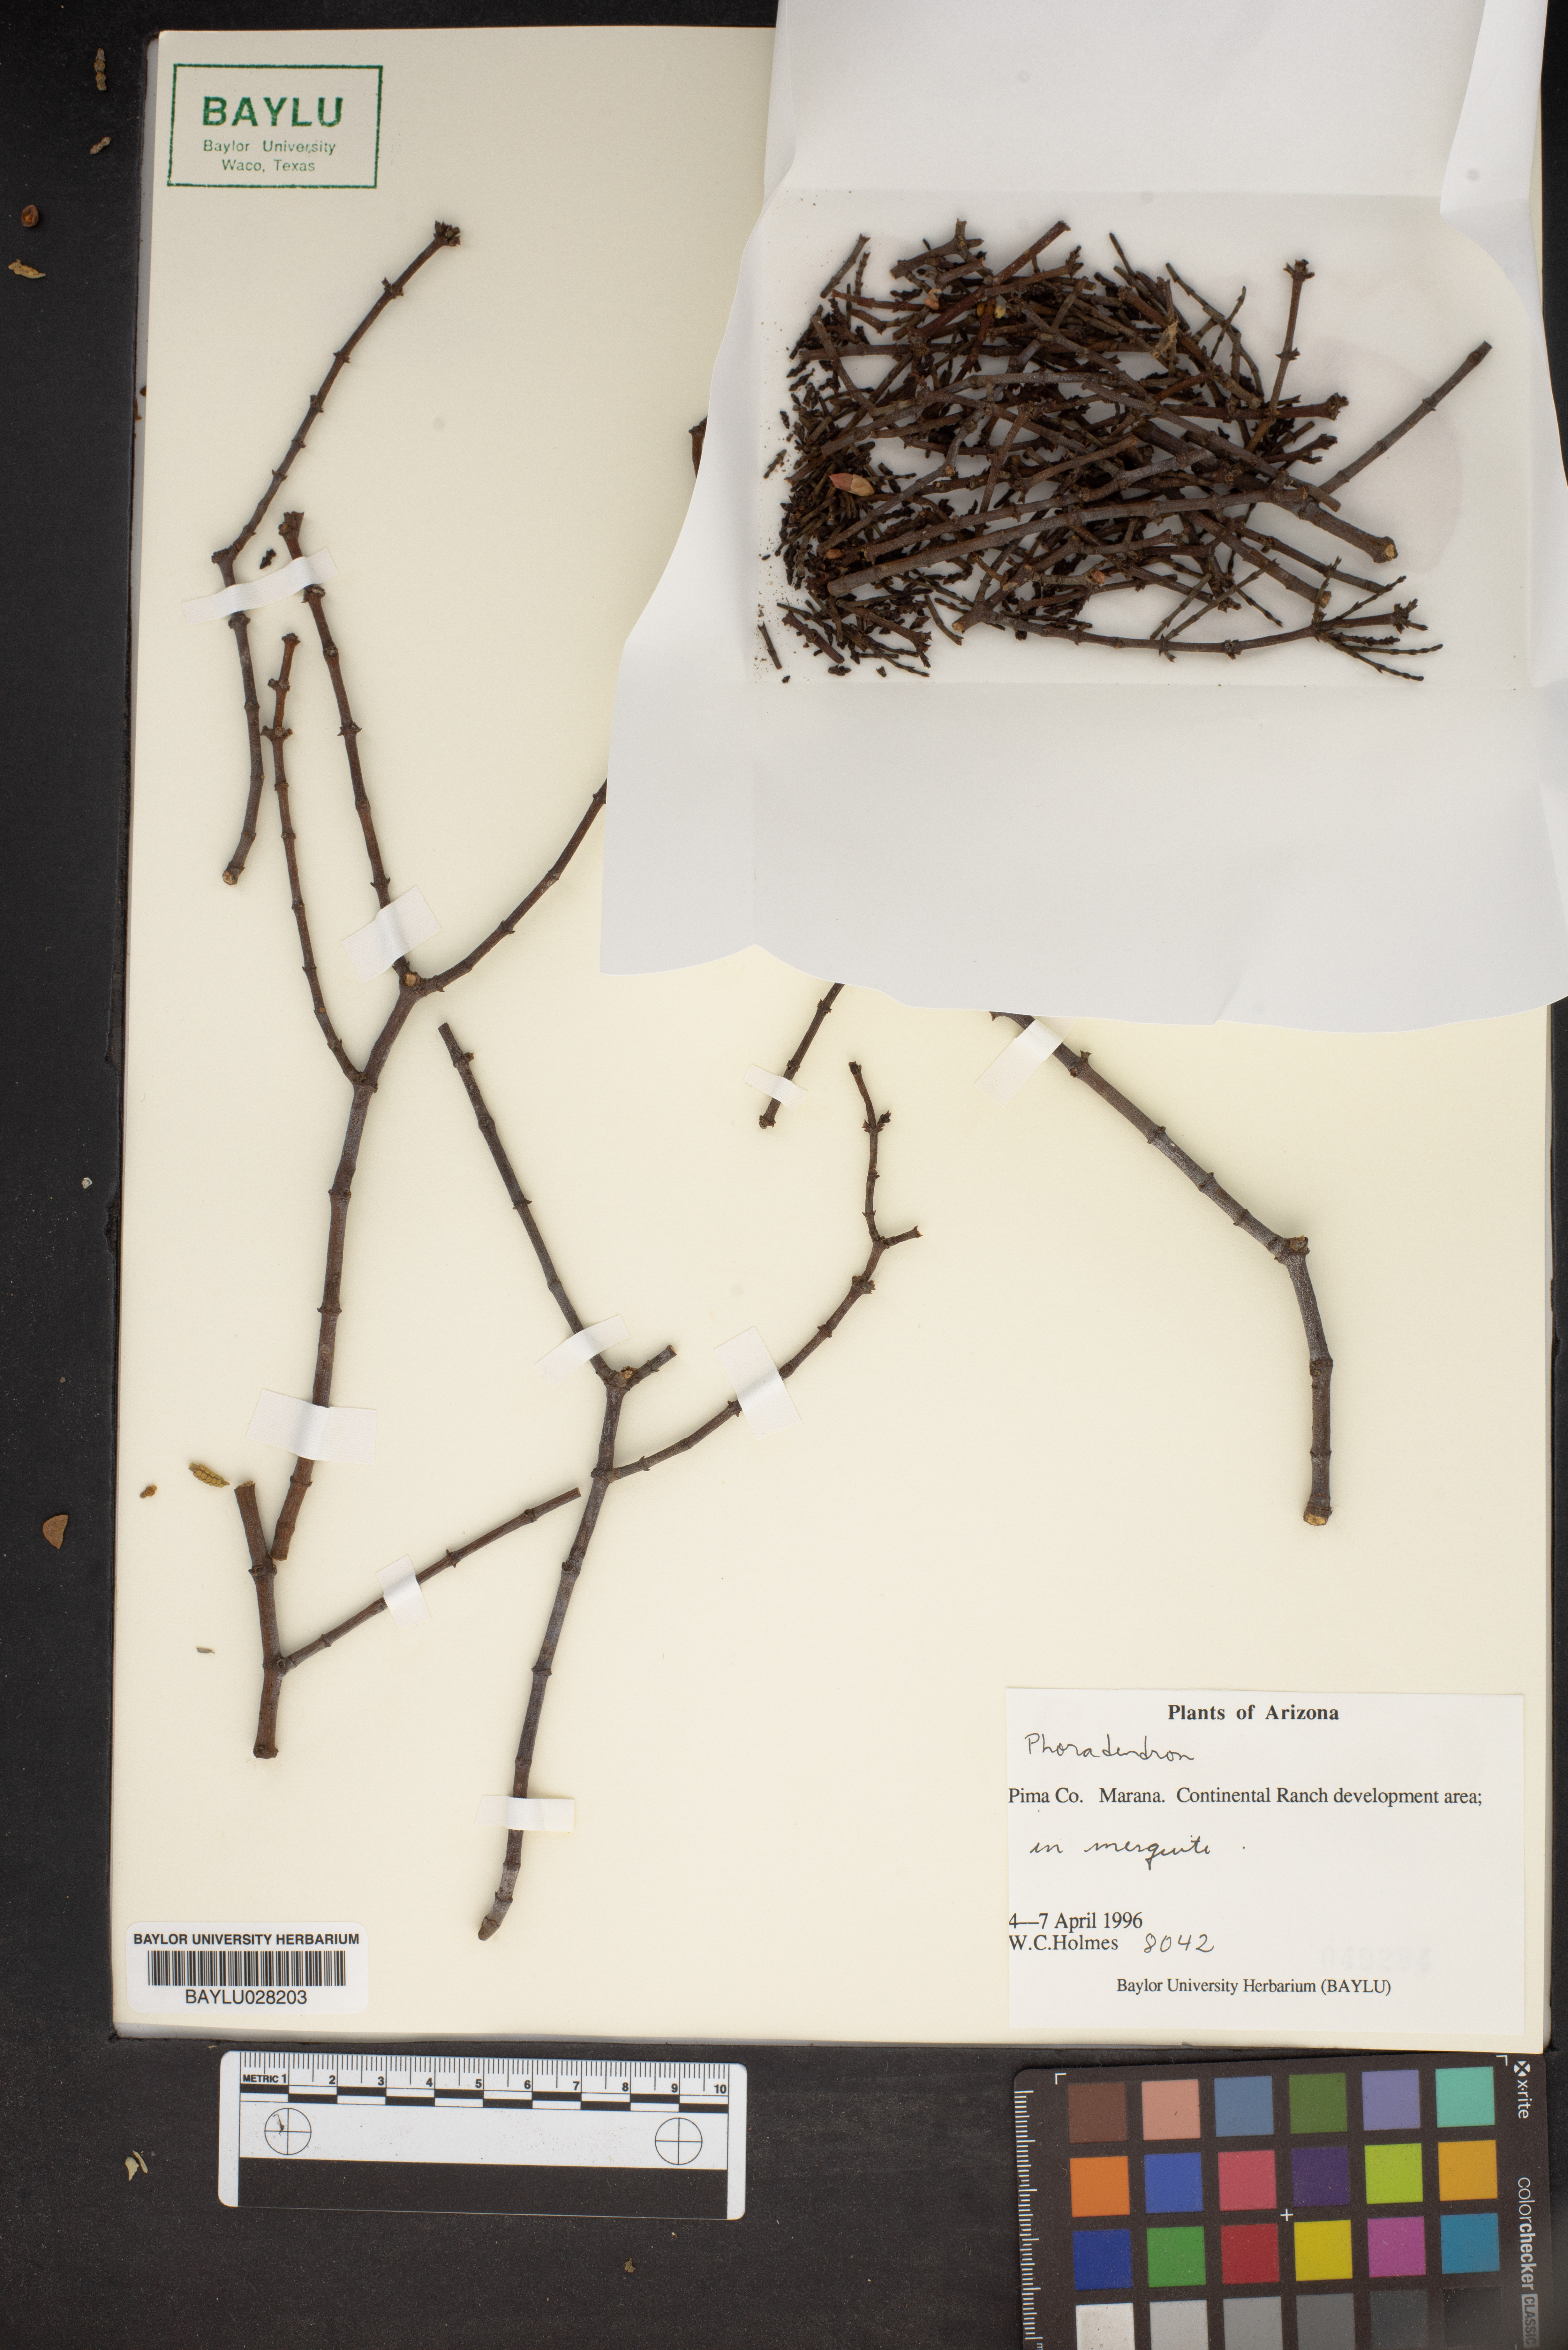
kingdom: Plantae
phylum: Tracheophyta
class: Magnoliopsida
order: Santalales
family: Viscaceae
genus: Phoradendron
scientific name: Phoradendron
